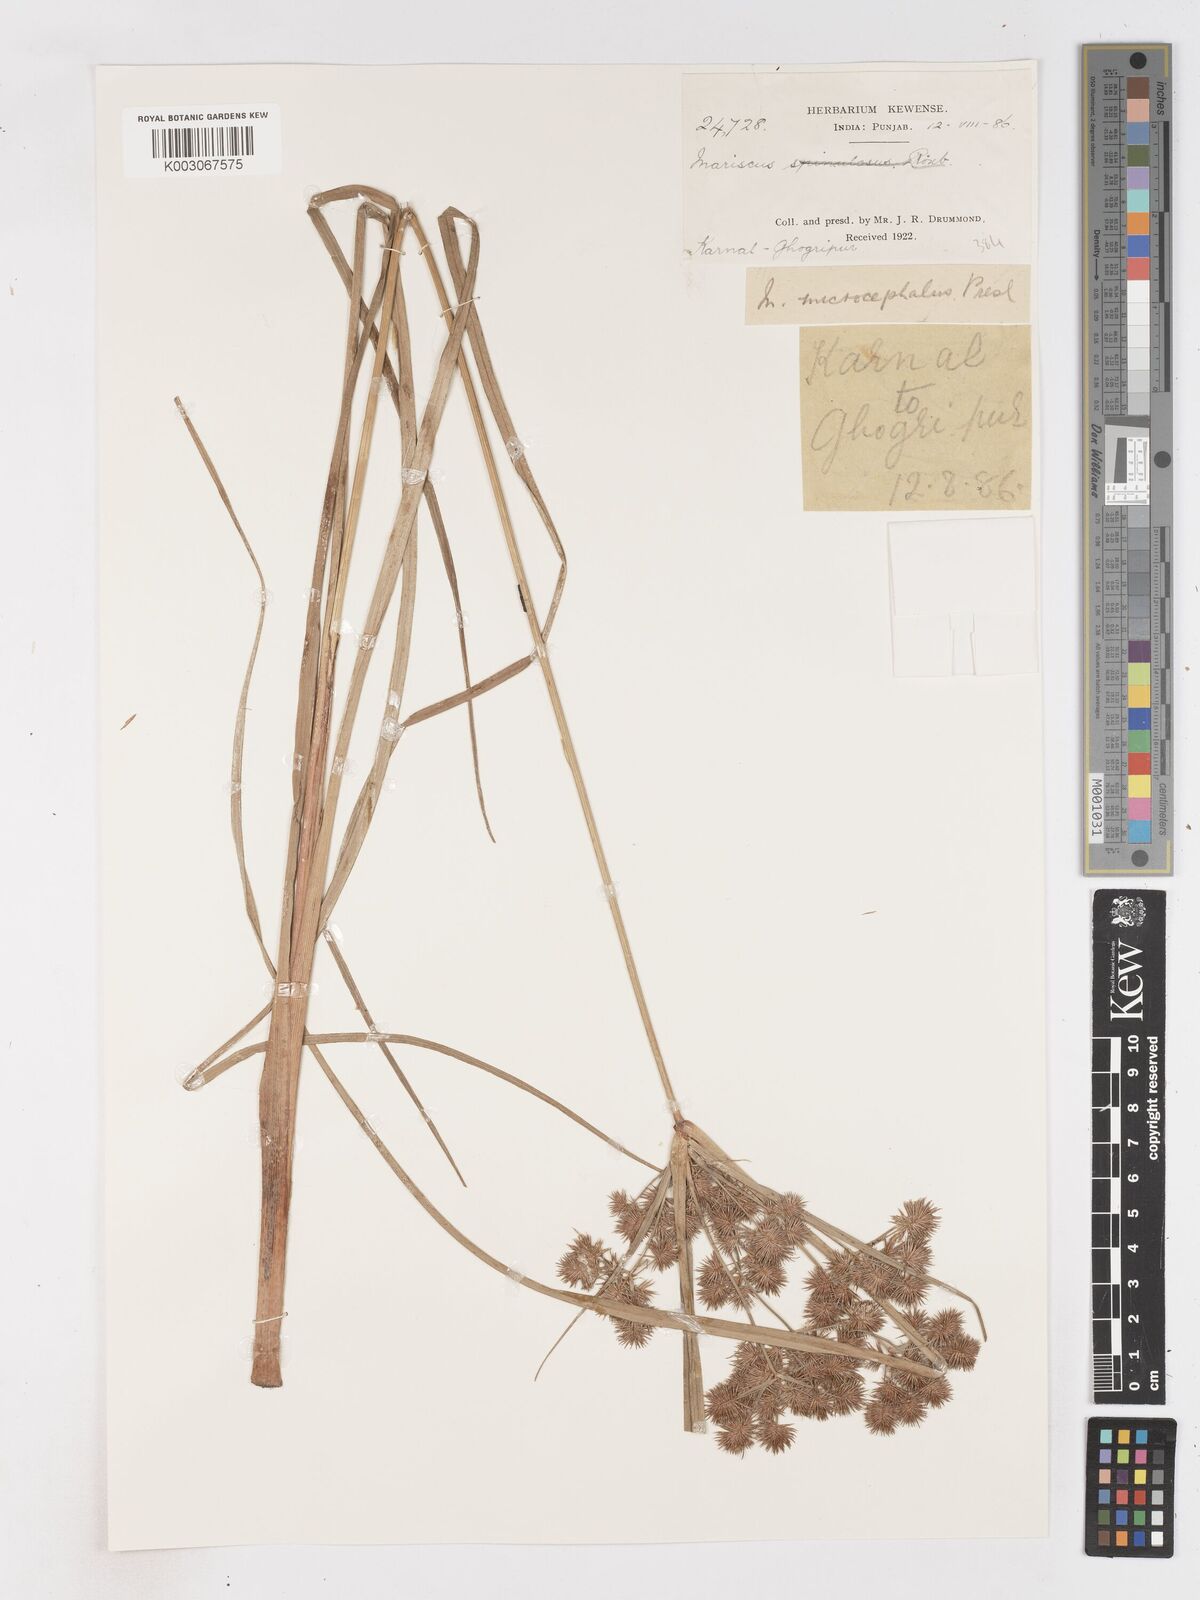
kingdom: Plantae
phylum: Tracheophyta
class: Liliopsida
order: Poales
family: Cyperaceae
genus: Cyperus
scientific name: Cyperus compactus
